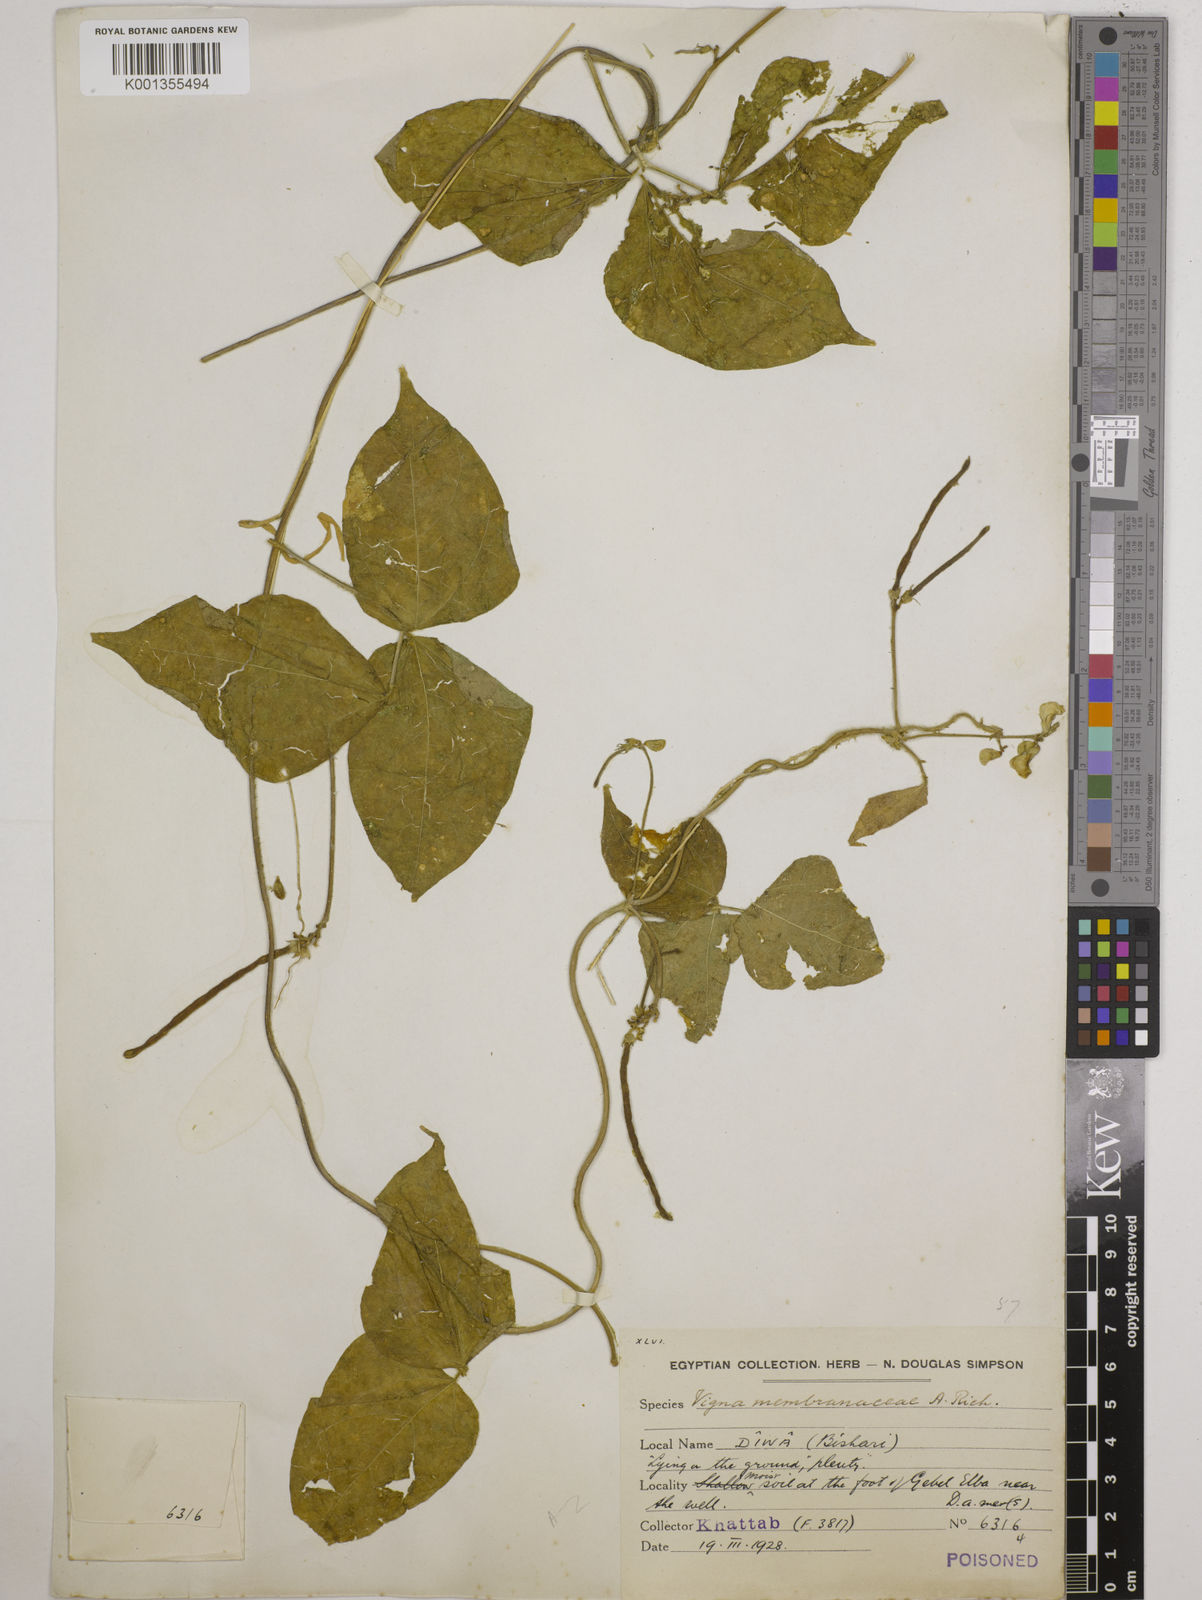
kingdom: Plantae
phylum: Tracheophyta
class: Magnoliopsida
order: Fabales
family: Fabaceae
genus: Vigna
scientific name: Vigna membranacea
